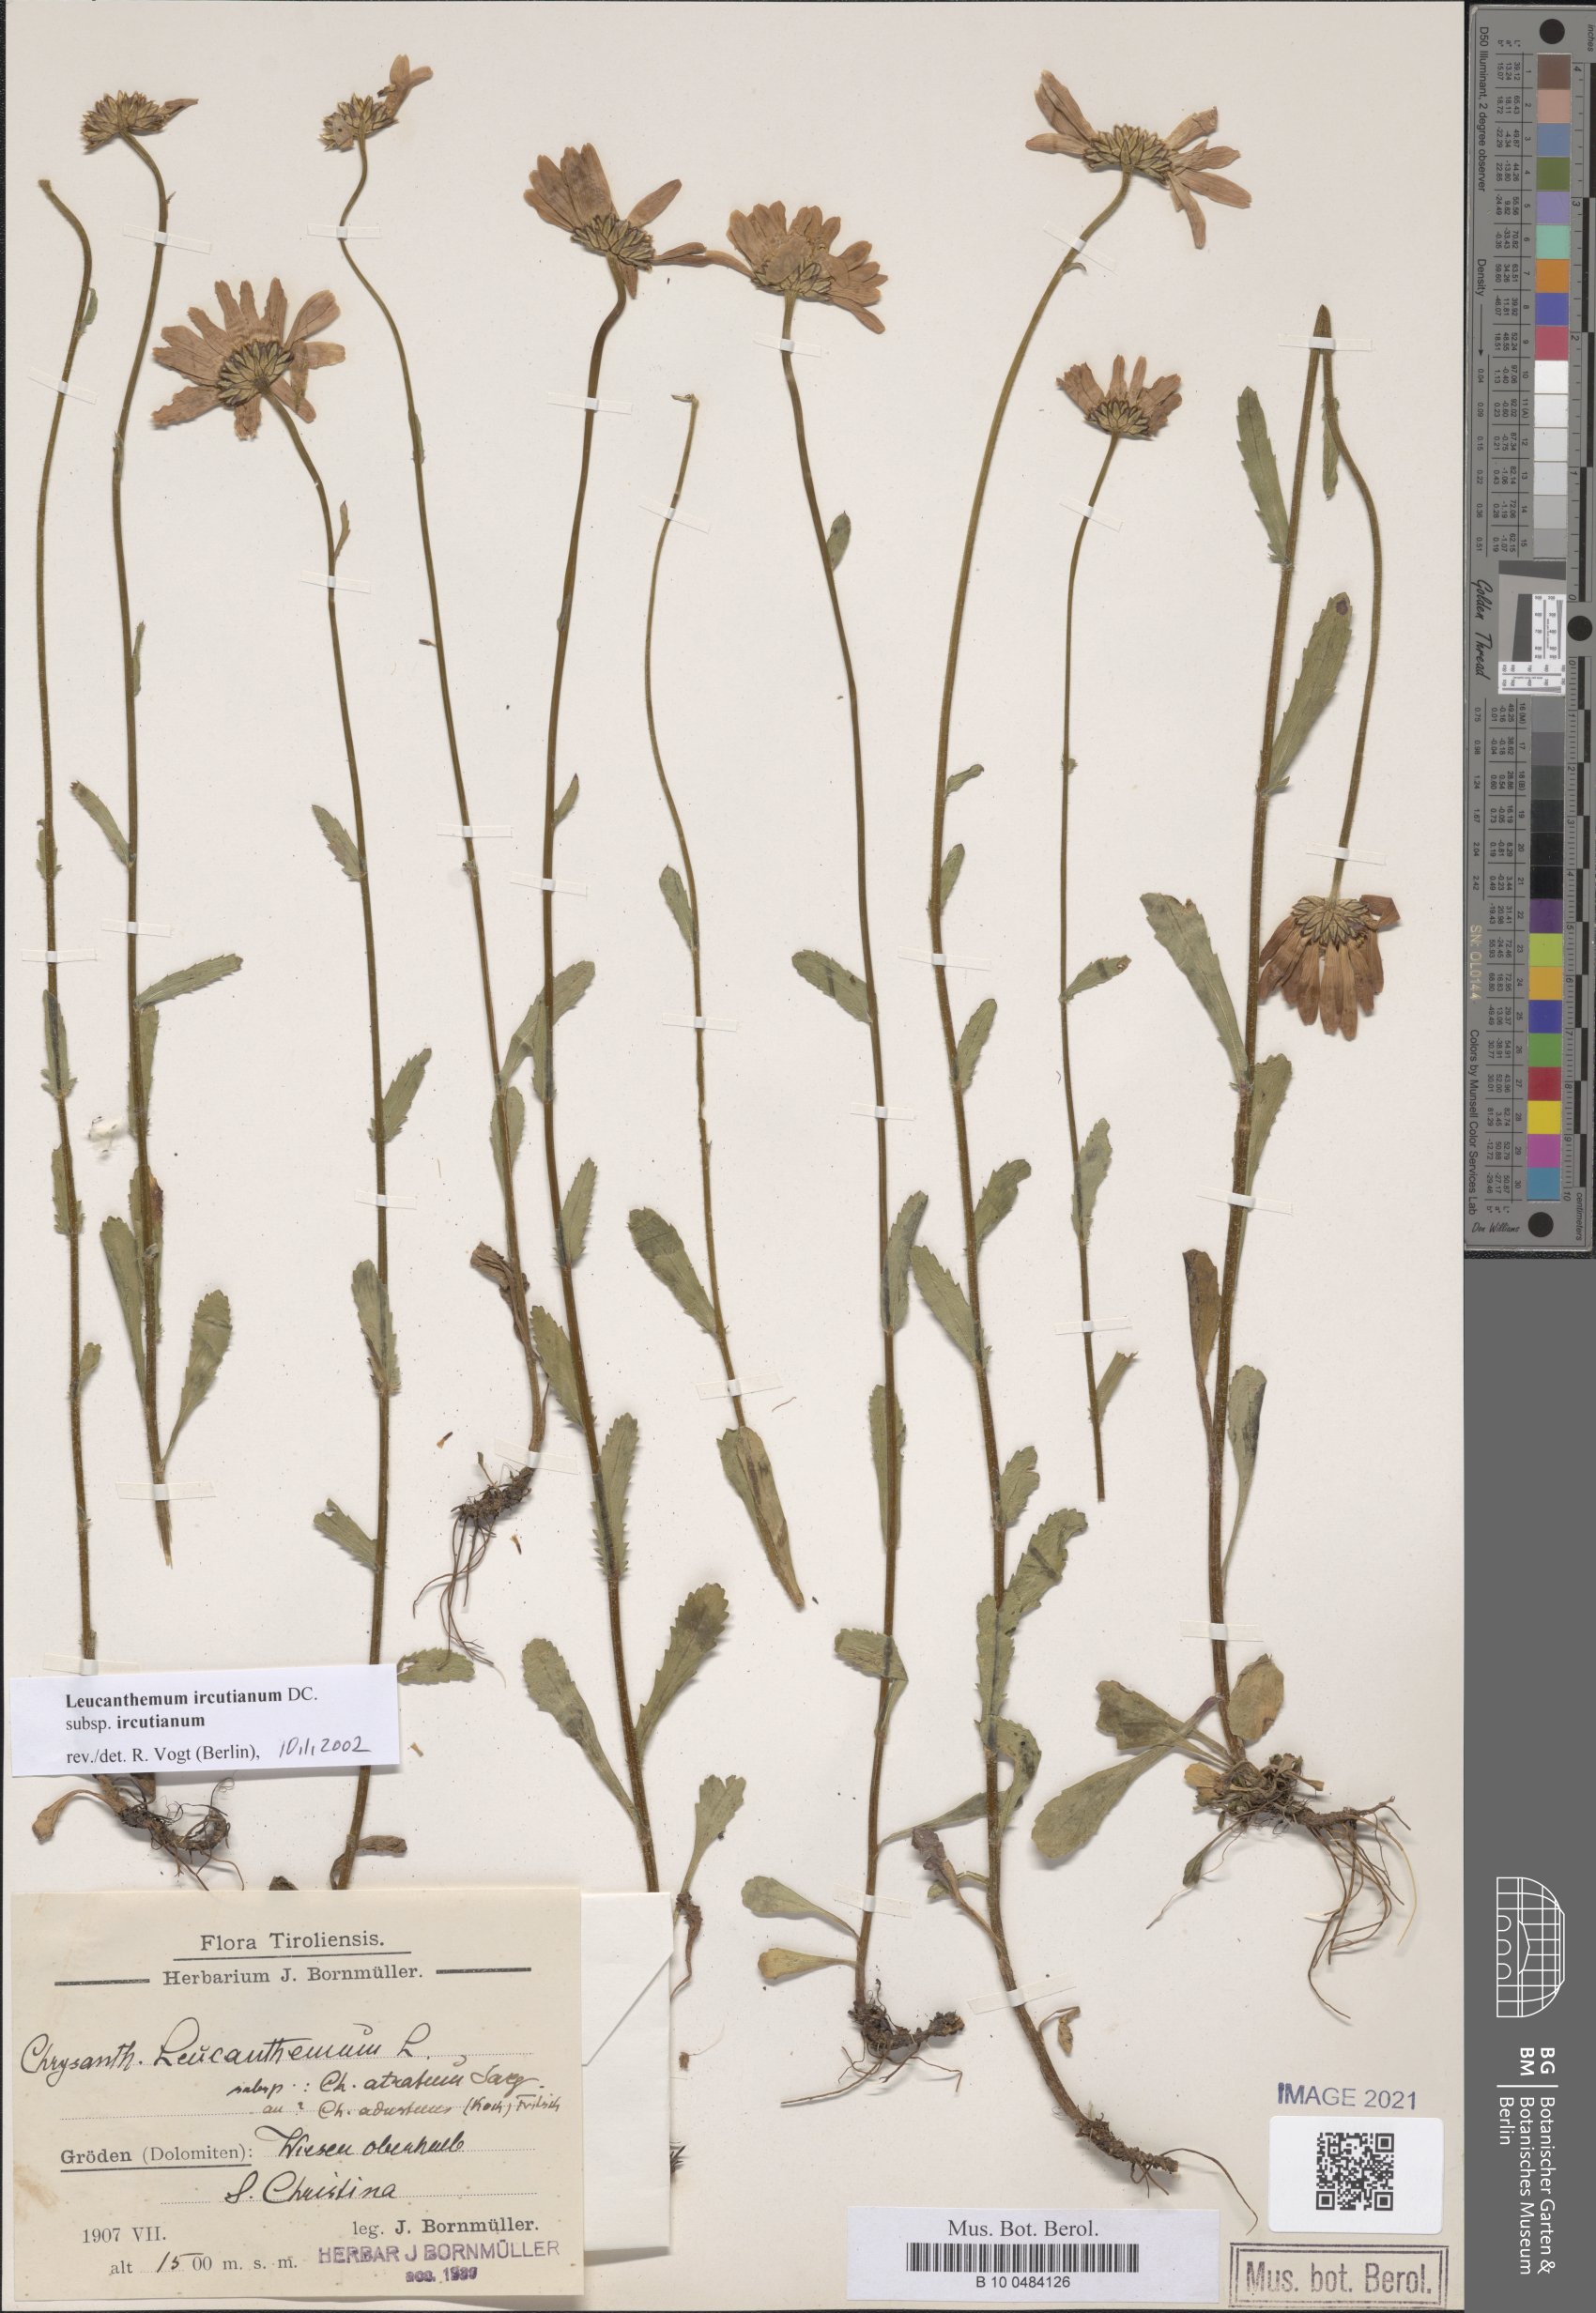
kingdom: Plantae
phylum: Tracheophyta
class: Magnoliopsida
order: Asterales
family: Asteraceae
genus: Leucanthemum
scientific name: Leucanthemum ircutianum
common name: Daisy
